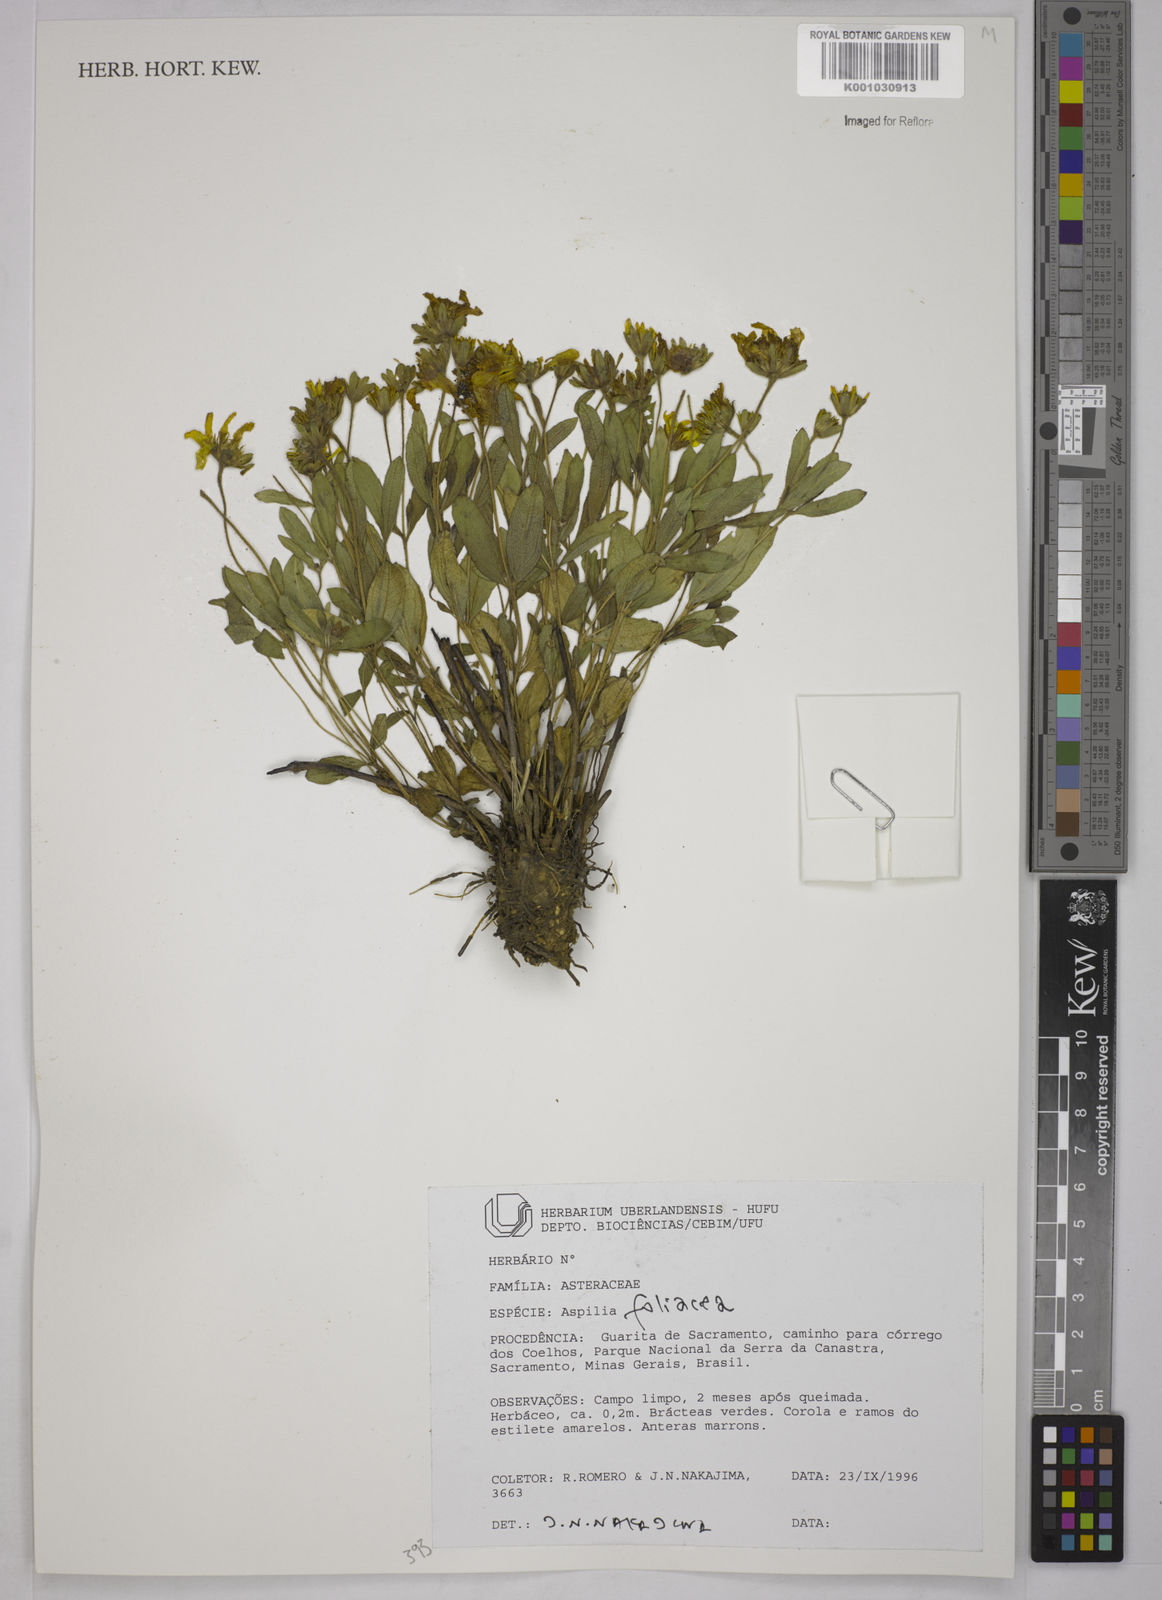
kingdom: Plantae
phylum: Tracheophyta
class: Magnoliopsida
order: Asterales
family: Asteraceae
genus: Wedelia
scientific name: Wedelia foliacea
